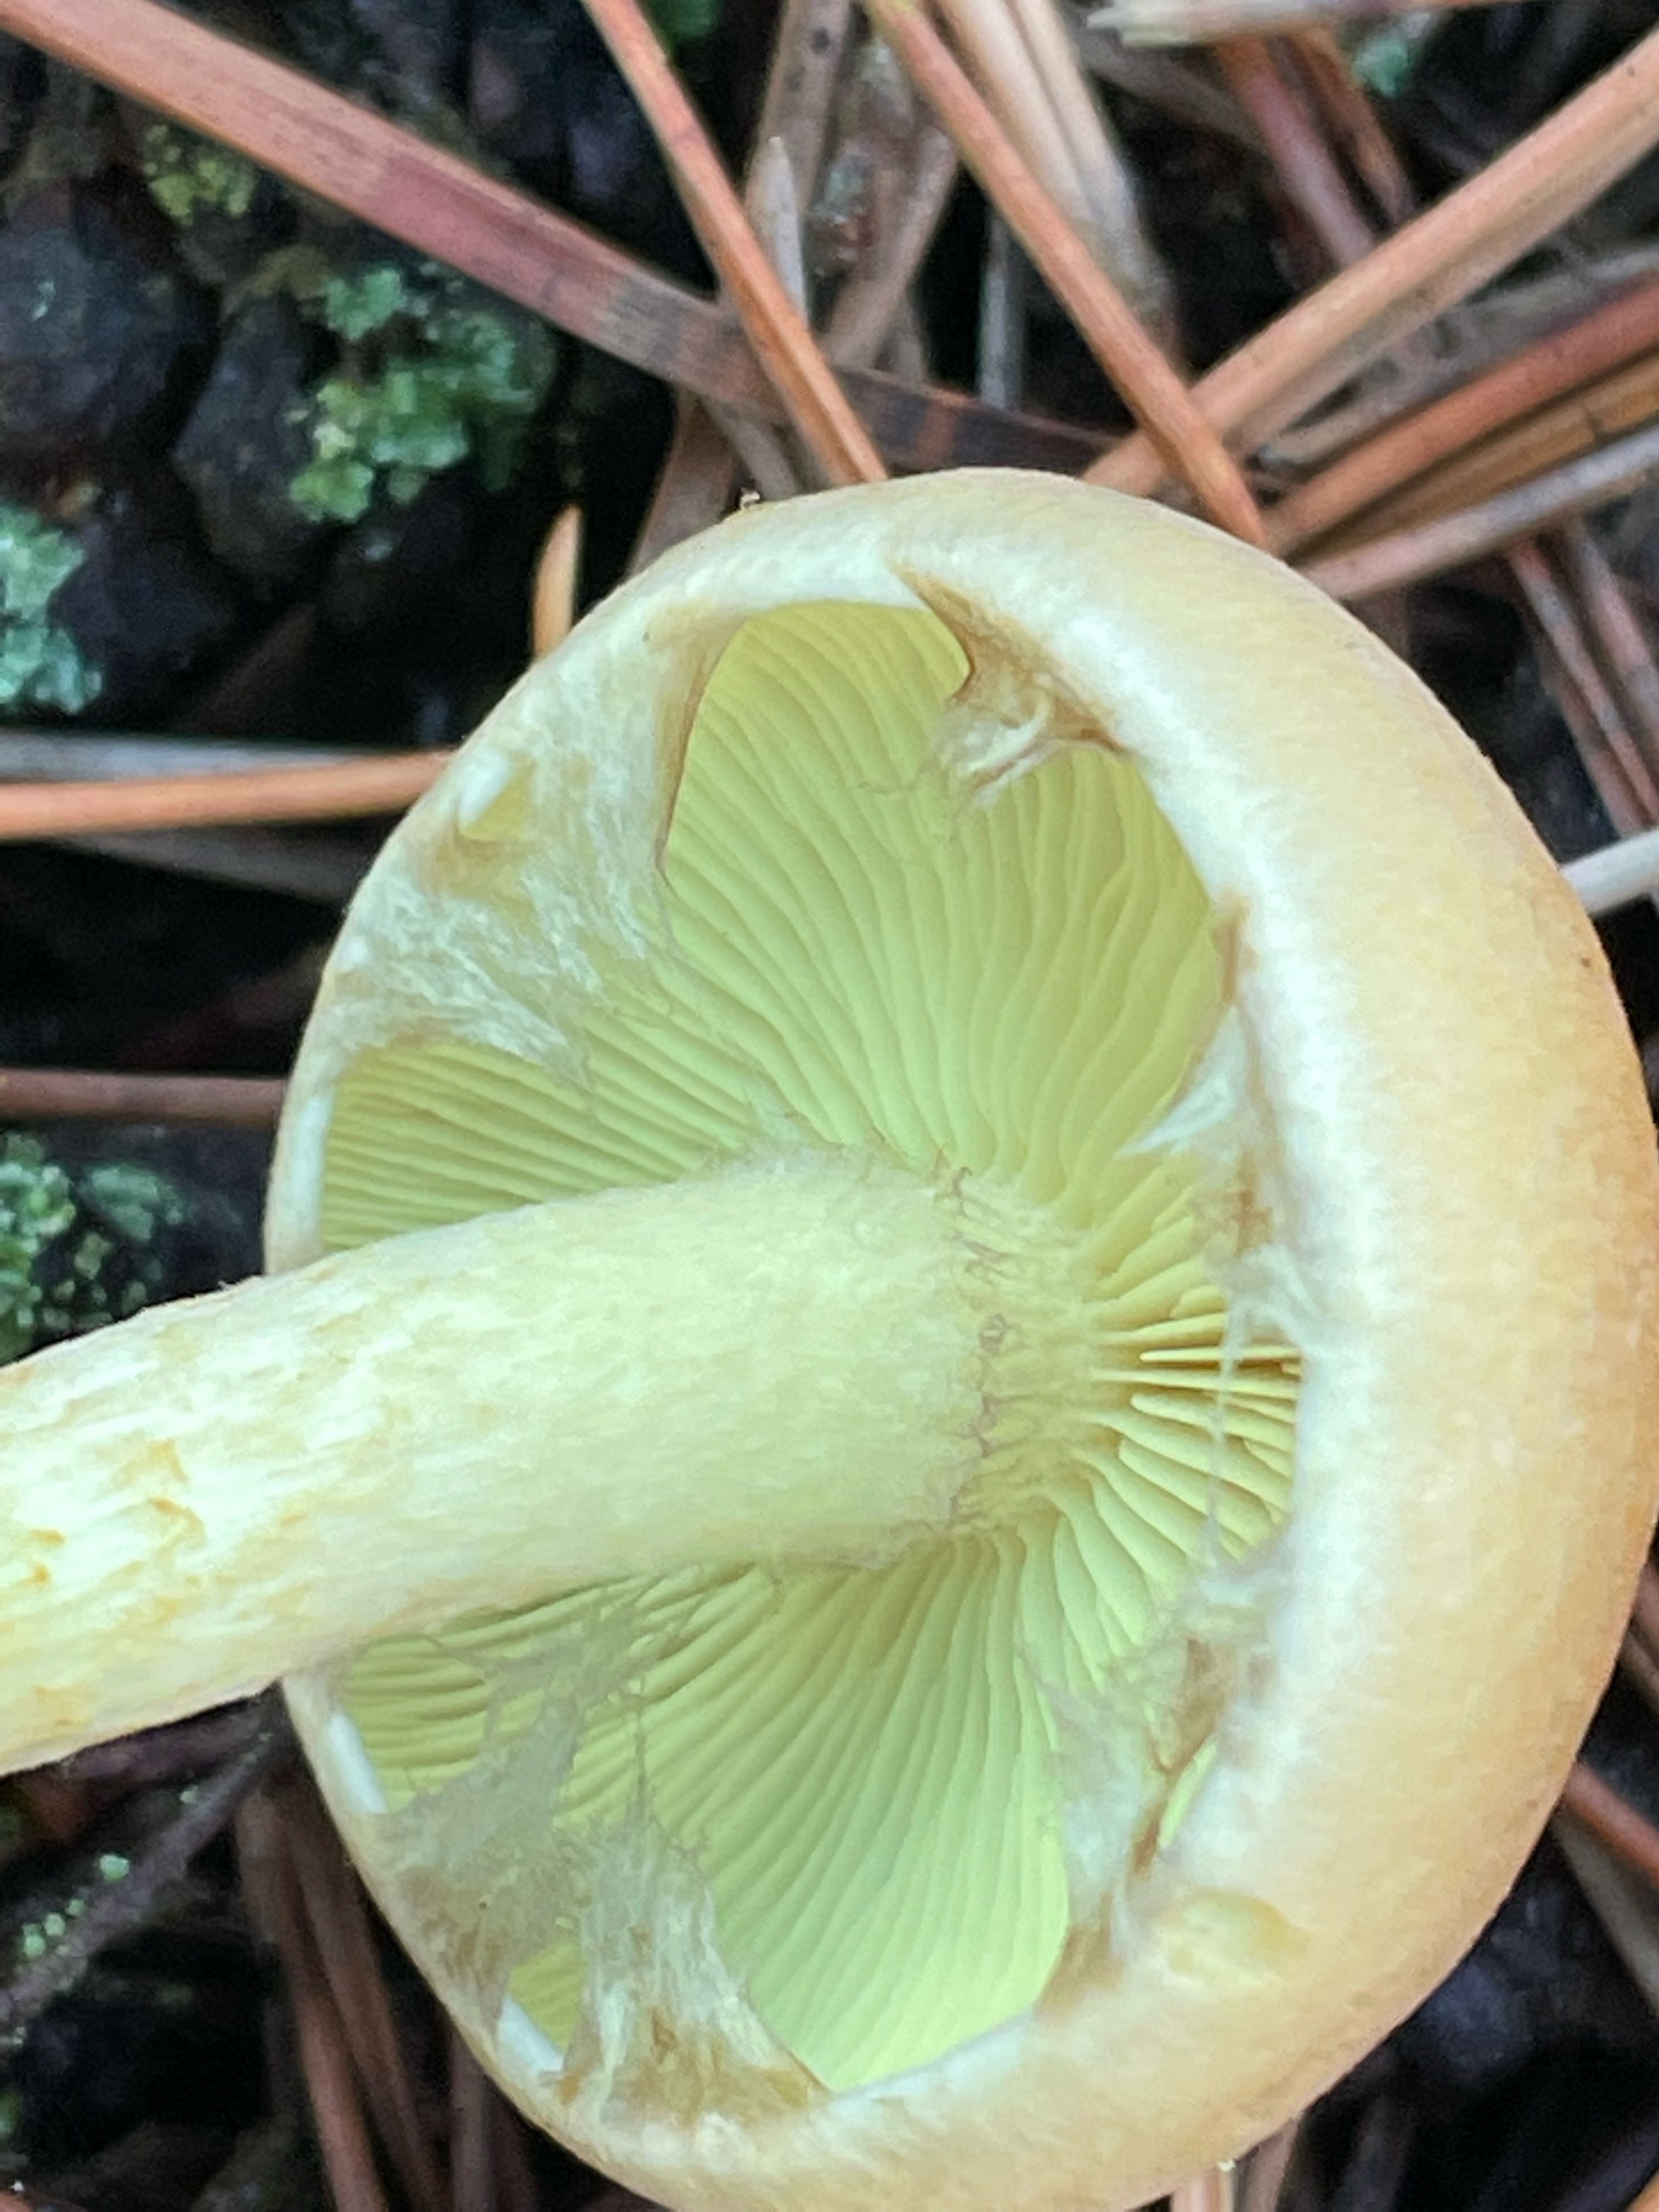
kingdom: Fungi
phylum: Basidiomycota
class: Agaricomycetes
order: Agaricales
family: Strophariaceae
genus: Hypholoma
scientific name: Hypholoma fasciculare
